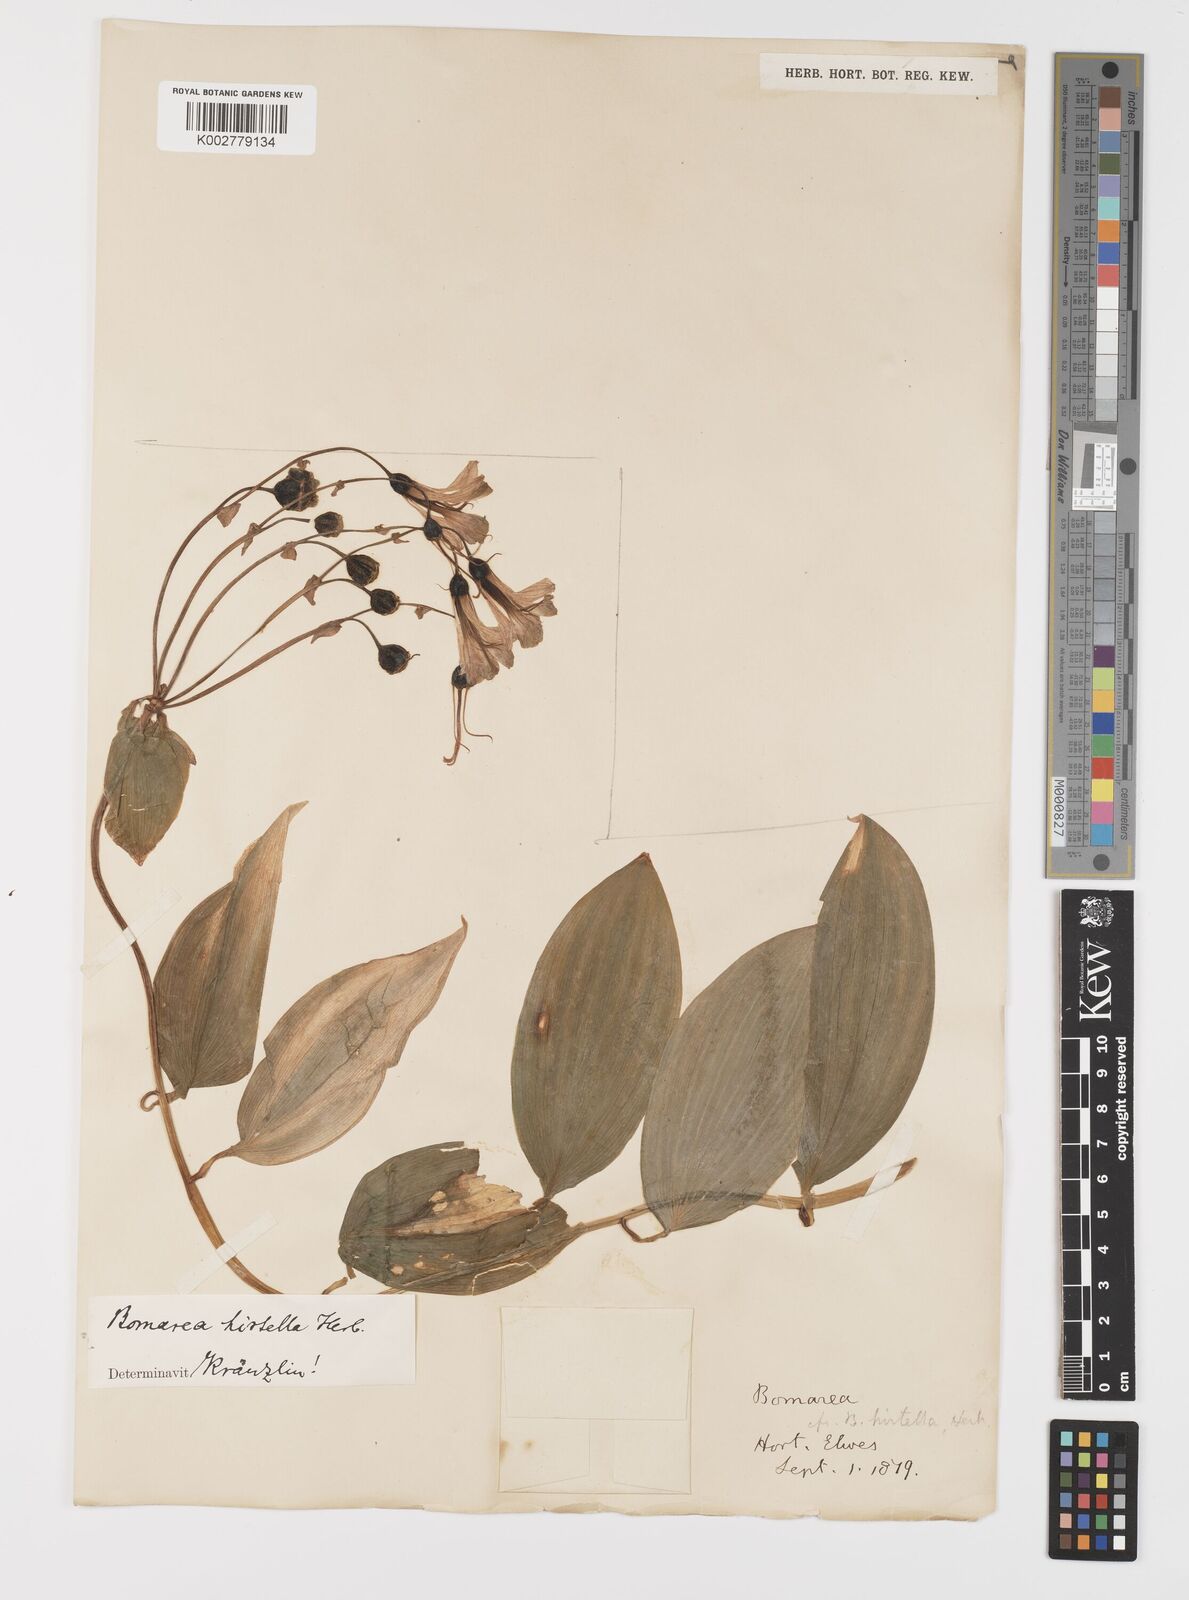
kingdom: Plantae
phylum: Tracheophyta
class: Liliopsida
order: Liliales
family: Alstroemeriaceae
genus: Bomarea
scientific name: Bomarea edulis
